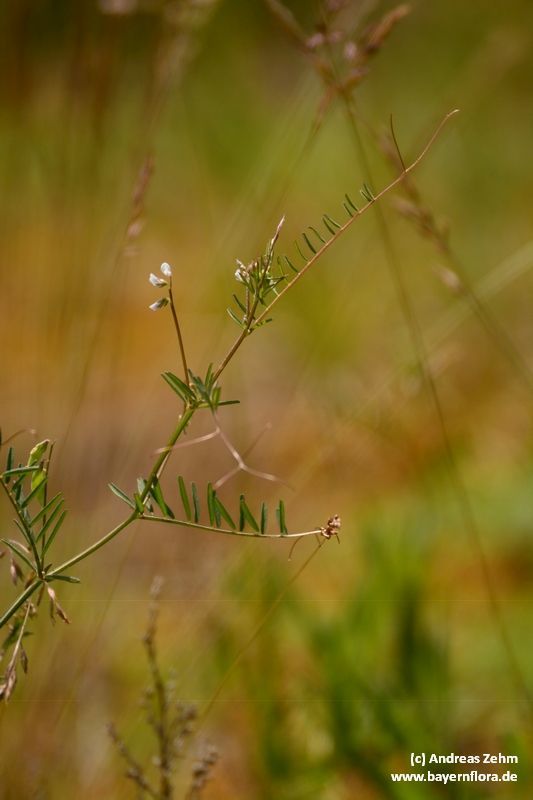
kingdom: Plantae
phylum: Tracheophyta
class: Magnoliopsida
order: Fabales
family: Fabaceae
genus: Vicia
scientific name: Vicia hirsuta
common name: Tiny vetch
